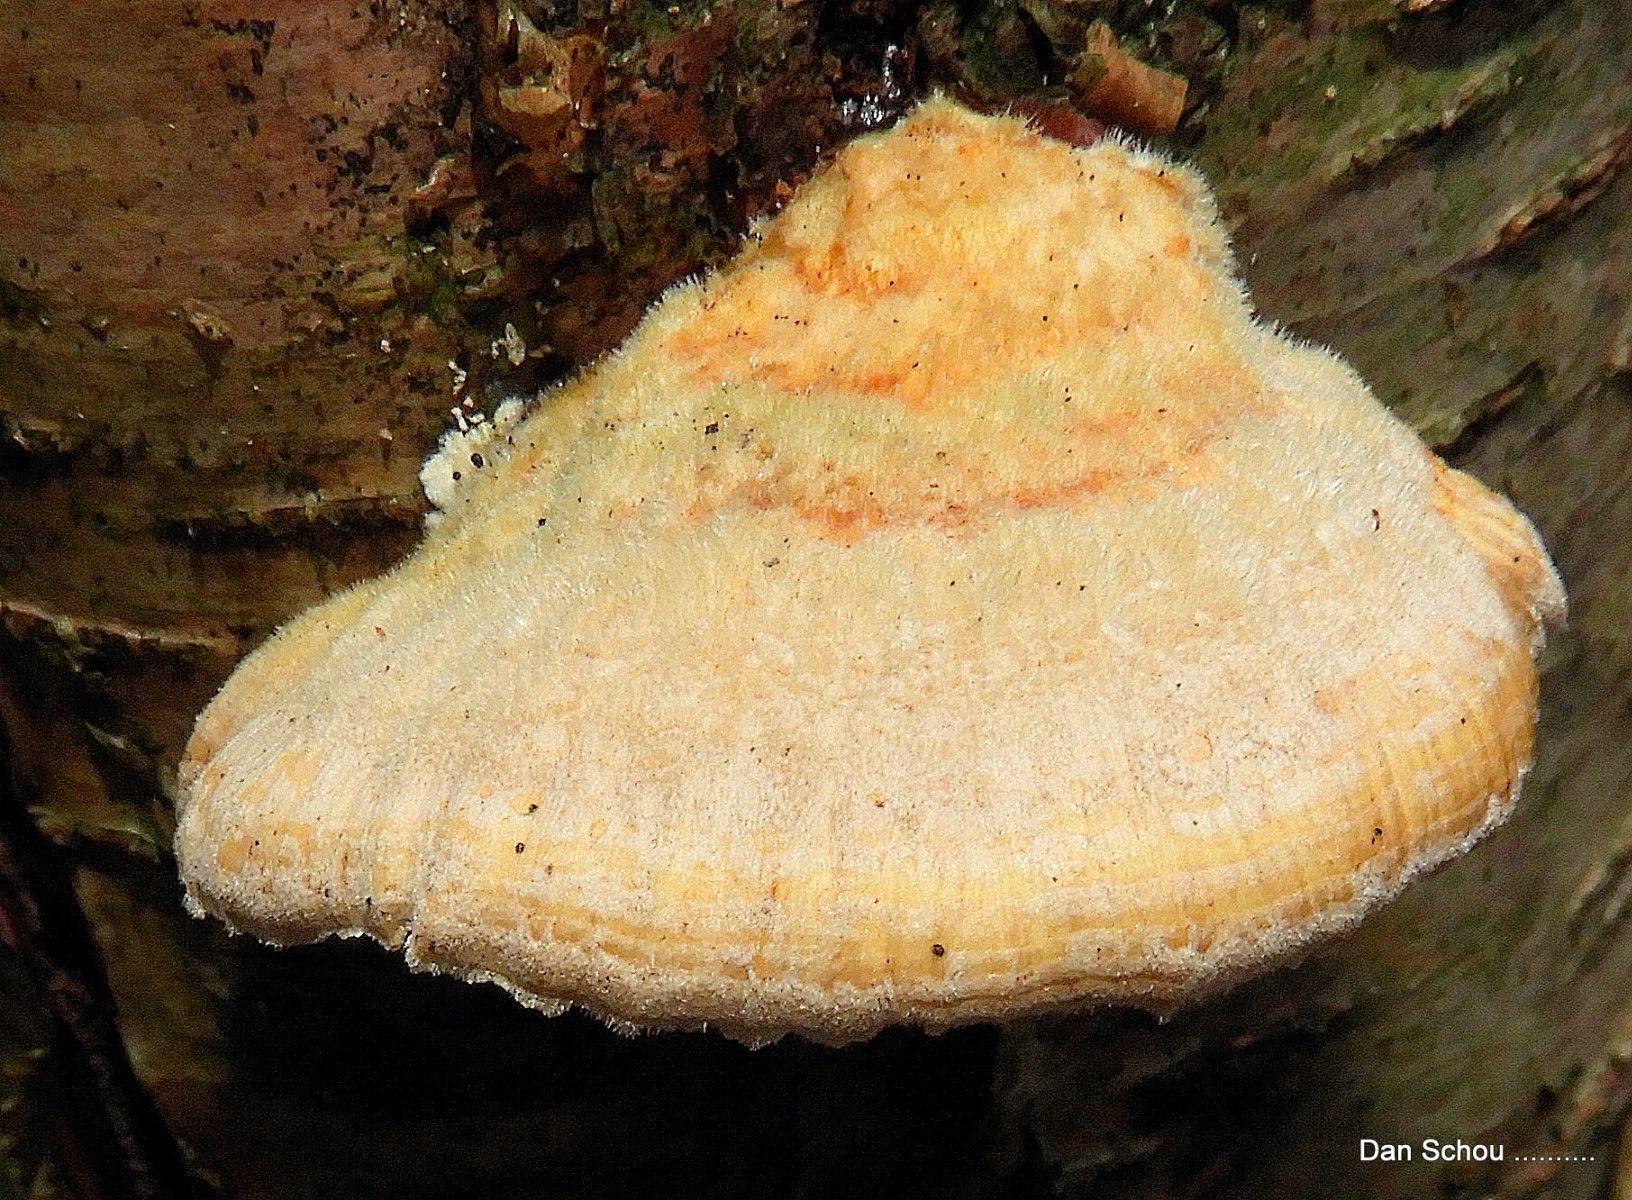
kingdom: Fungi
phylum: Basidiomycota
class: Agaricomycetes
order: Polyporales
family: Polyporaceae
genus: Trametes
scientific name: Trametes
